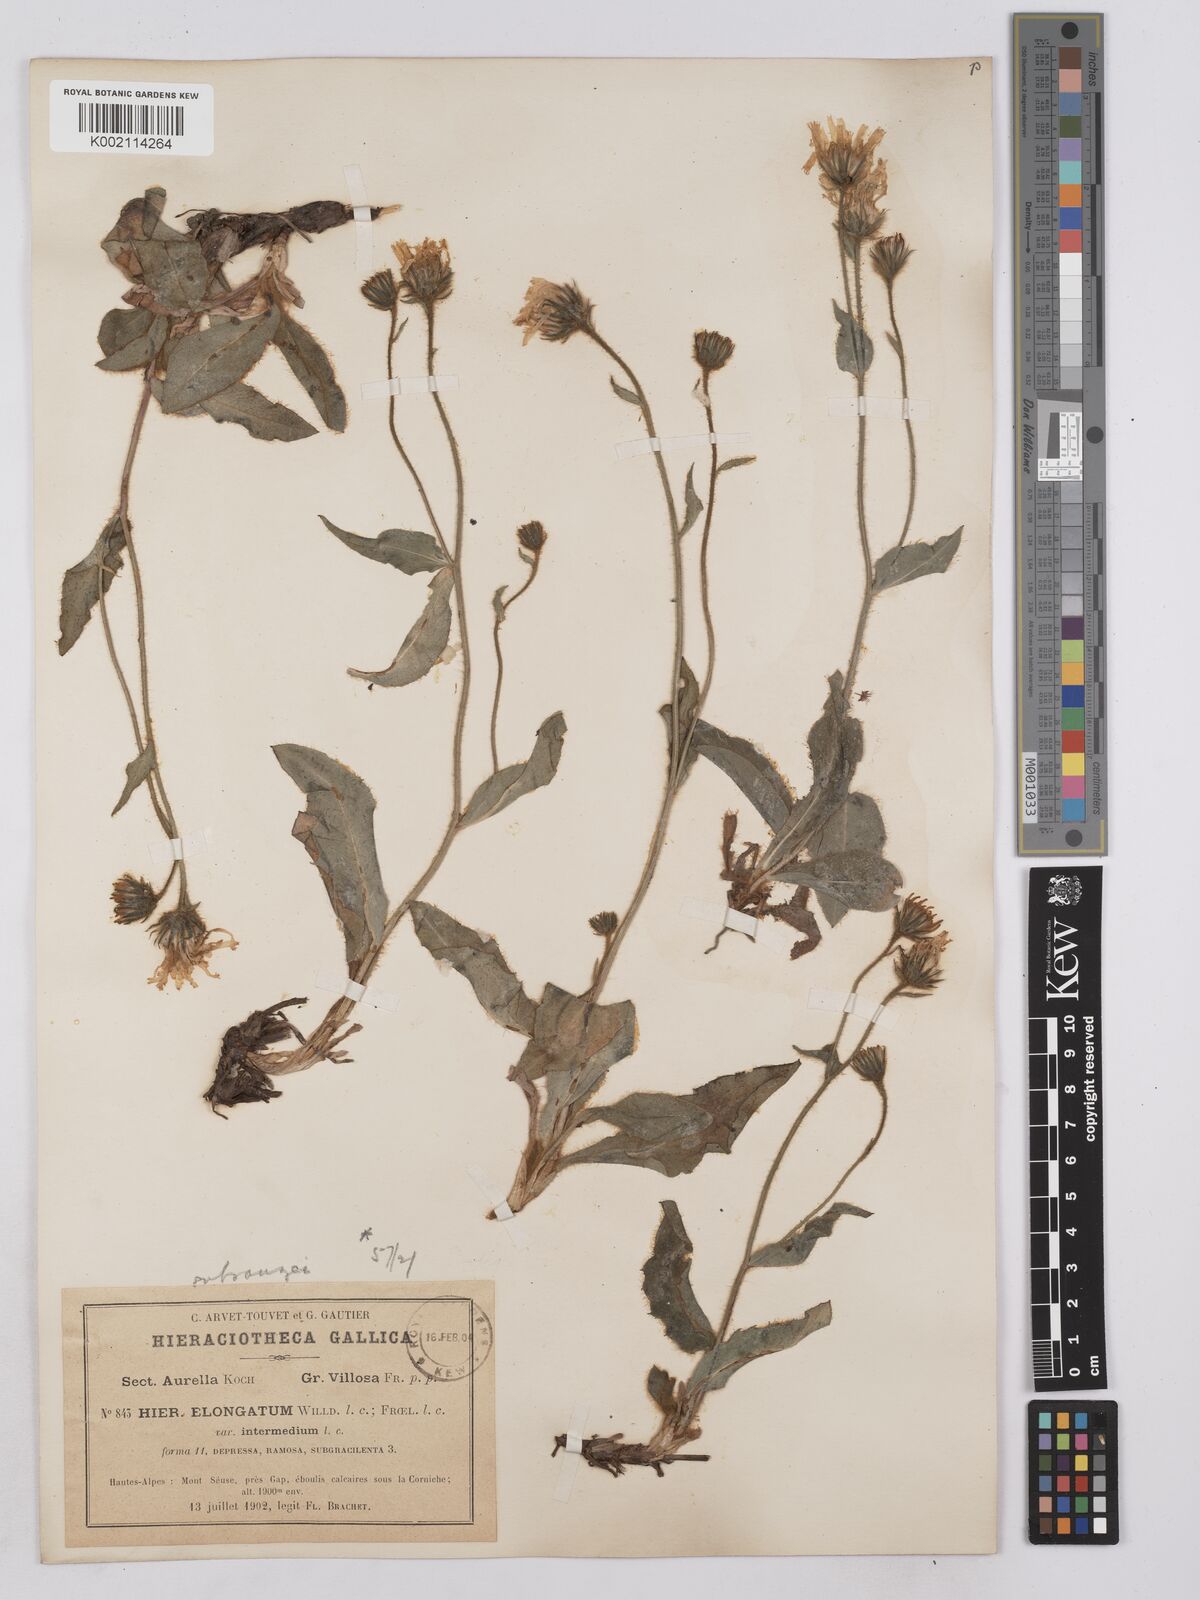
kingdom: Plantae
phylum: Tracheophyta
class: Magnoliopsida
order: Asterales
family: Asteraceae
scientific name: Asteraceae
